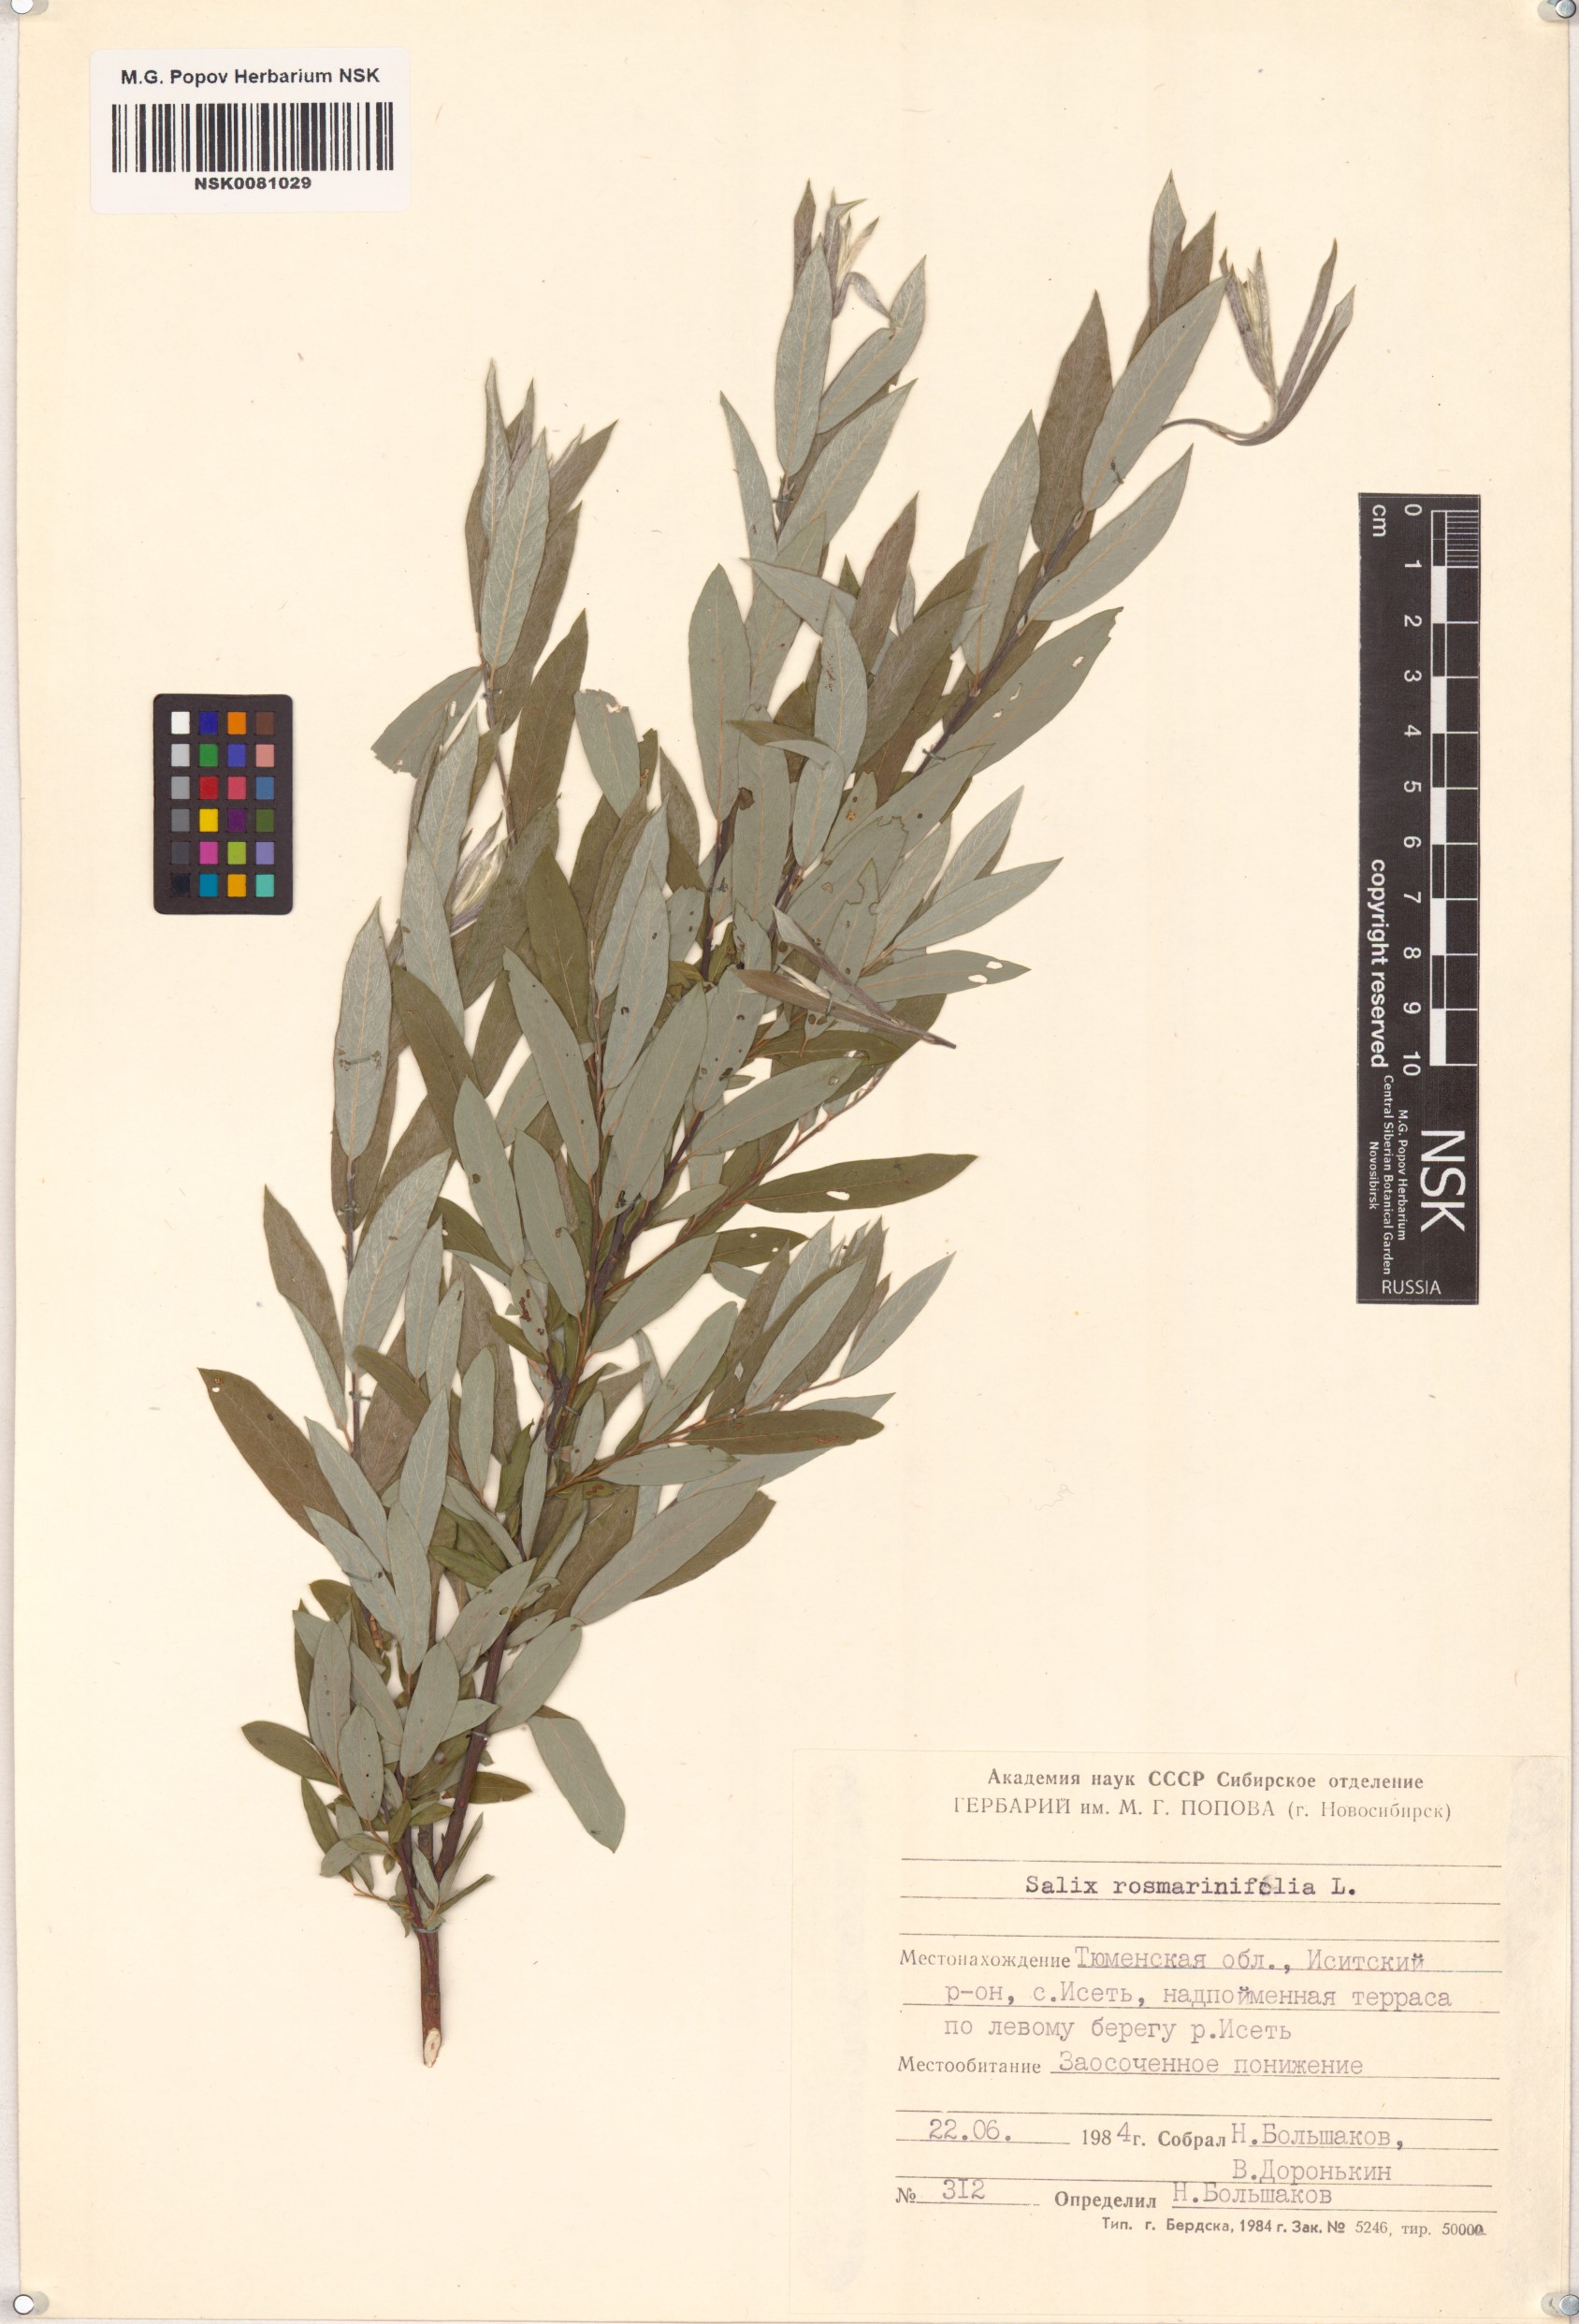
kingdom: Plantae
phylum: Tracheophyta
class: Magnoliopsida
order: Malpighiales
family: Salicaceae
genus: Salix
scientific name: Salix rosmarinifolia
